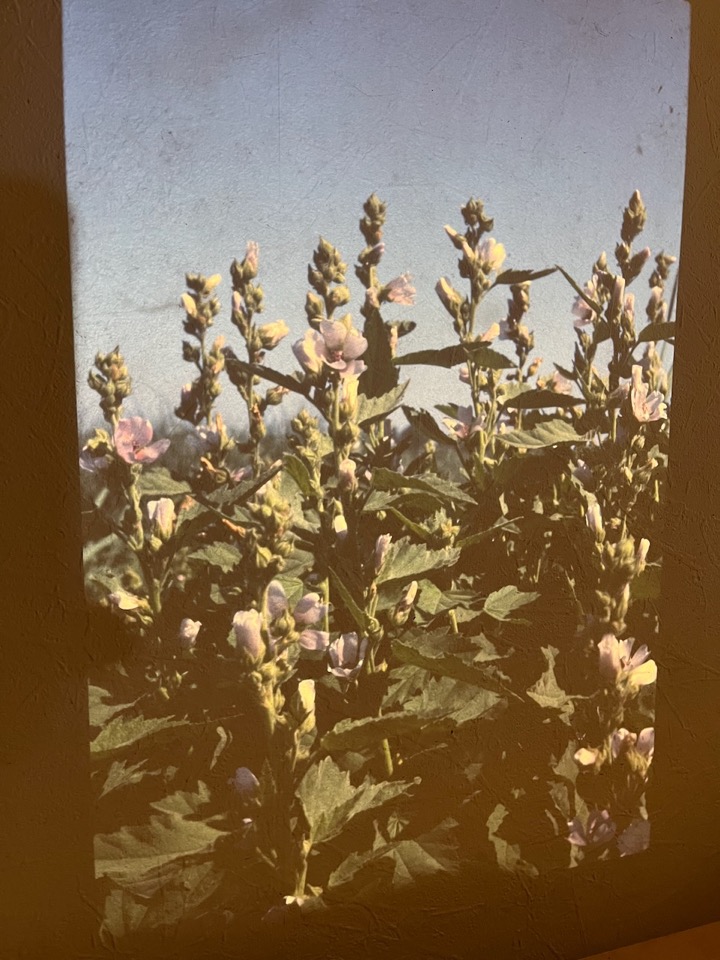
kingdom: Plantae
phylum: Tracheophyta
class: Magnoliopsida
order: Malvales
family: Malvaceae
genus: Althaea
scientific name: Althaea officinalis
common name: Lægestokrose
